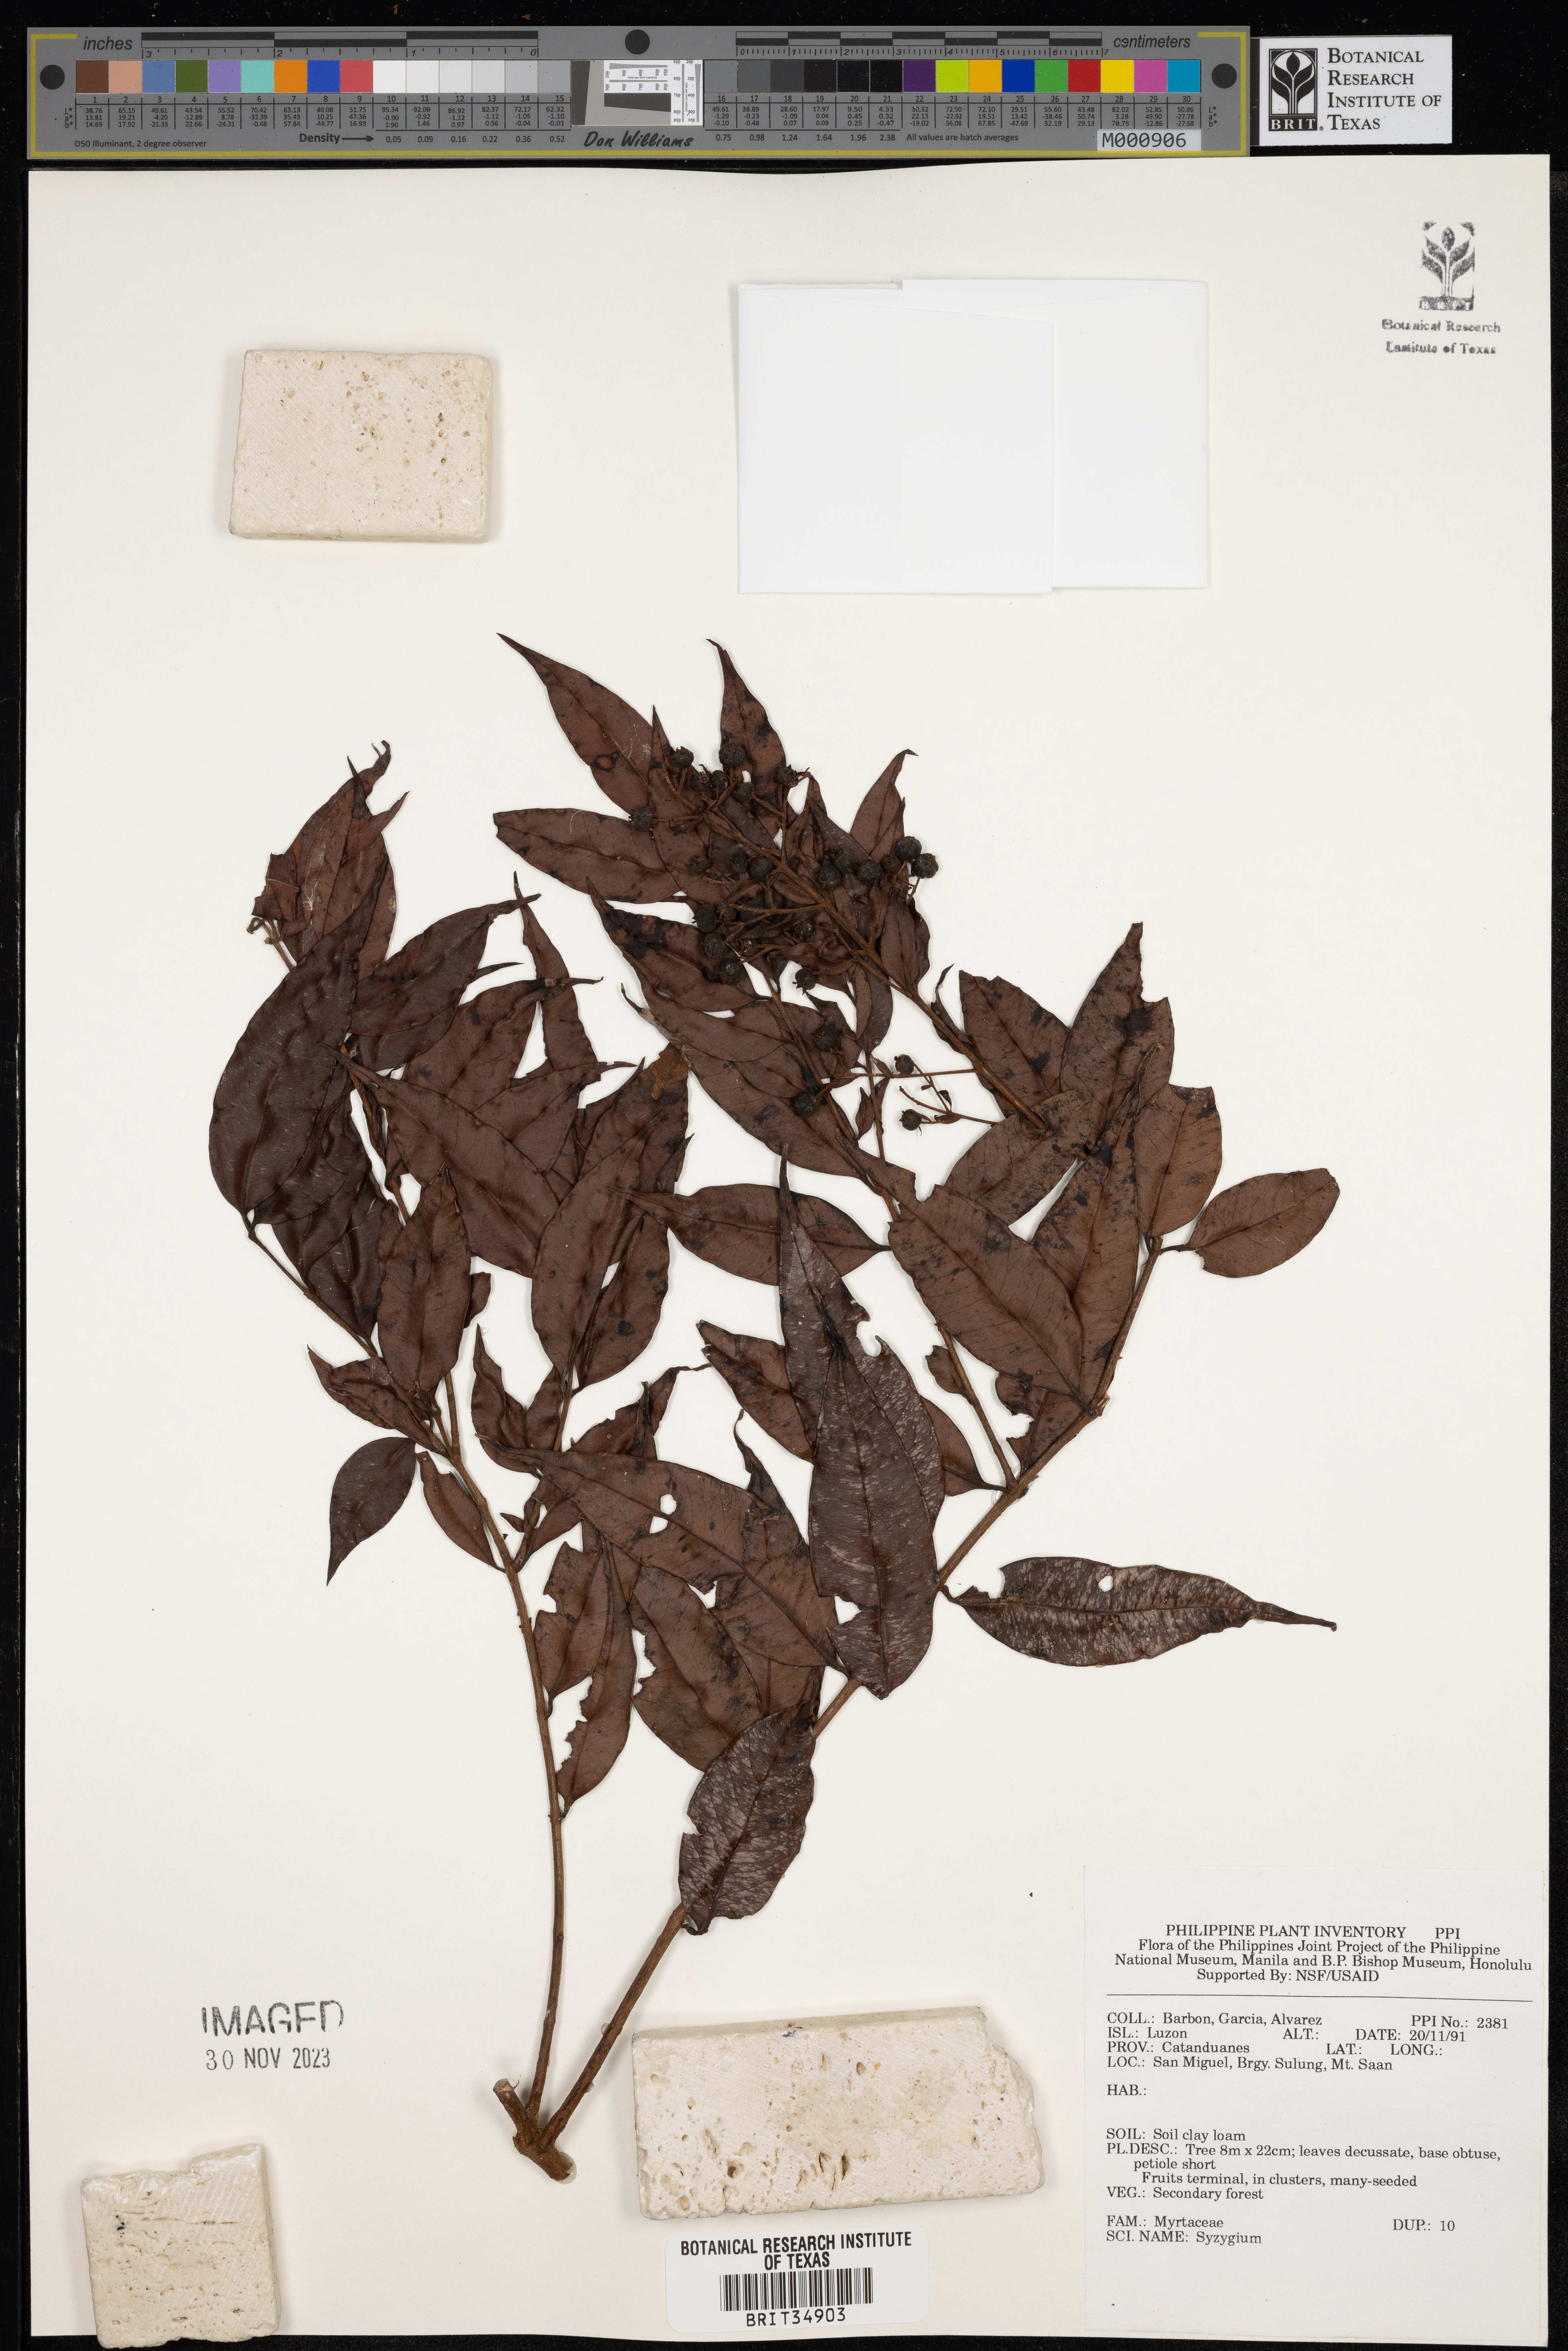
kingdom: Plantae
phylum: Tracheophyta
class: Magnoliopsida
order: Myrtales
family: Myrtaceae
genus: Syzygium
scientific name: Syzygium
